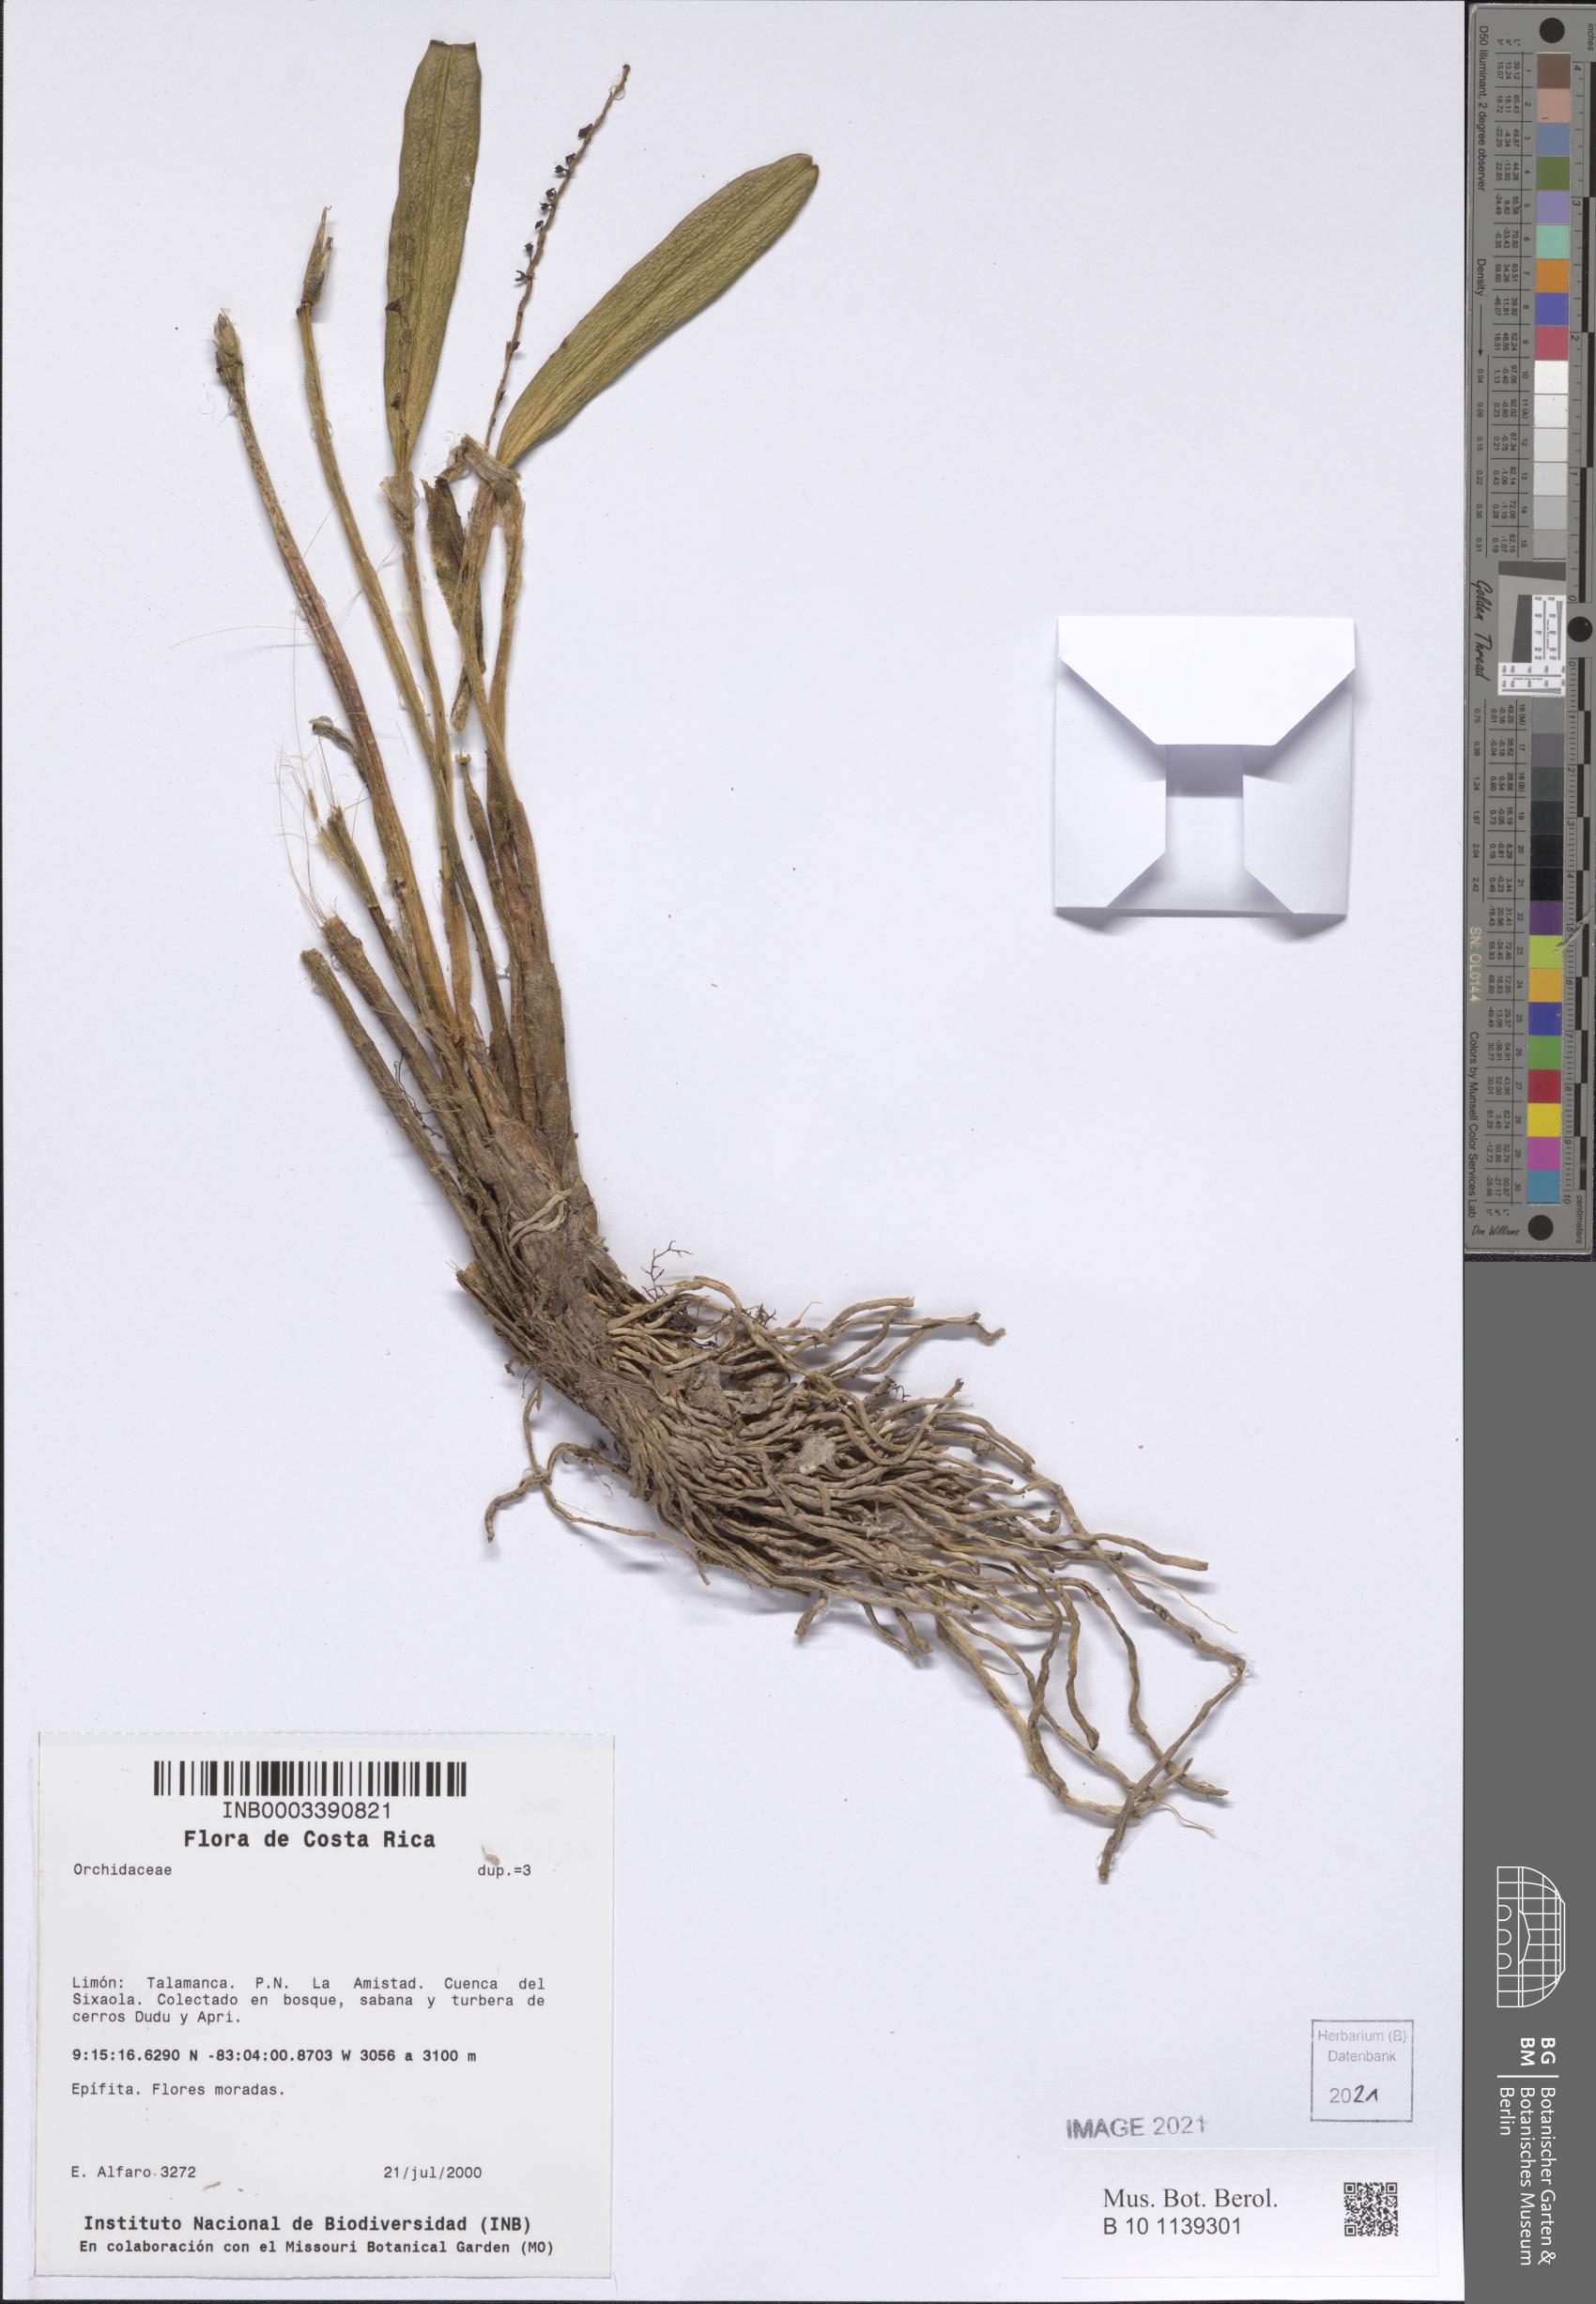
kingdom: Plantae
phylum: Tracheophyta
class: Liliopsida
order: Asparagales
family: Orchidaceae
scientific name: Orchidaceae
